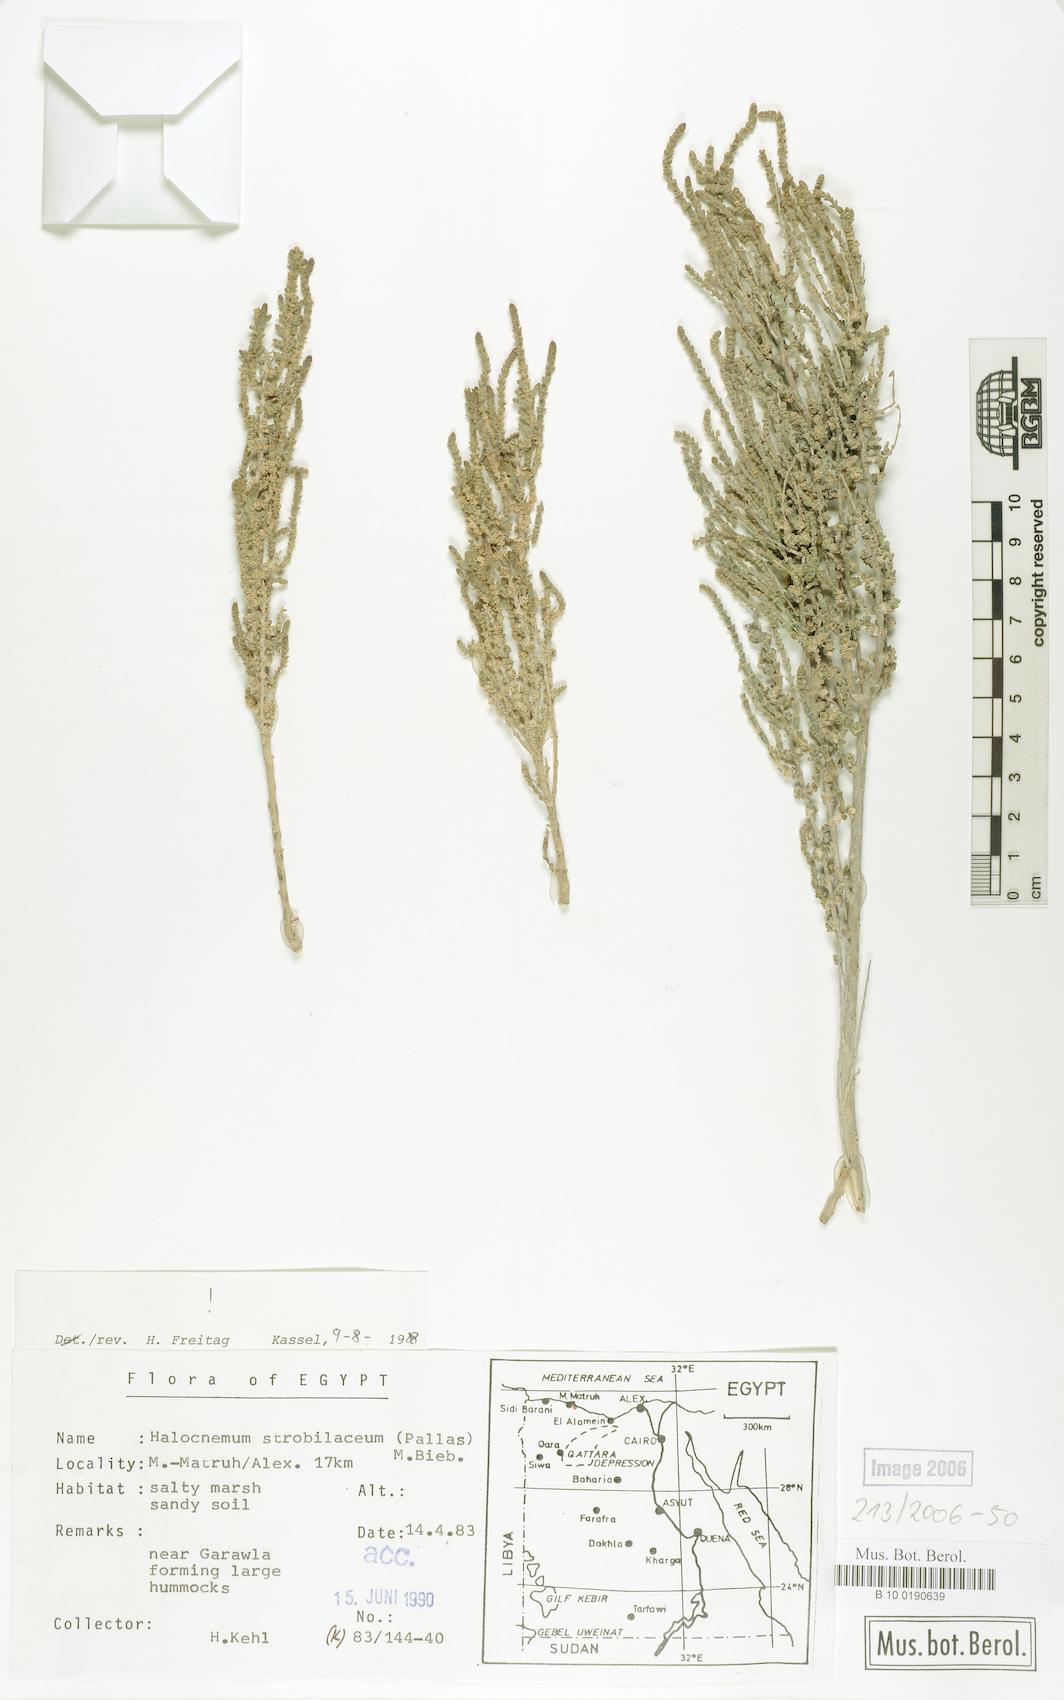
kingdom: Plantae
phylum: Tracheophyta
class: Magnoliopsida
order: Caryophyllales
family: Amaranthaceae
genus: Halocnemum
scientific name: Halocnemum strobilaceum
